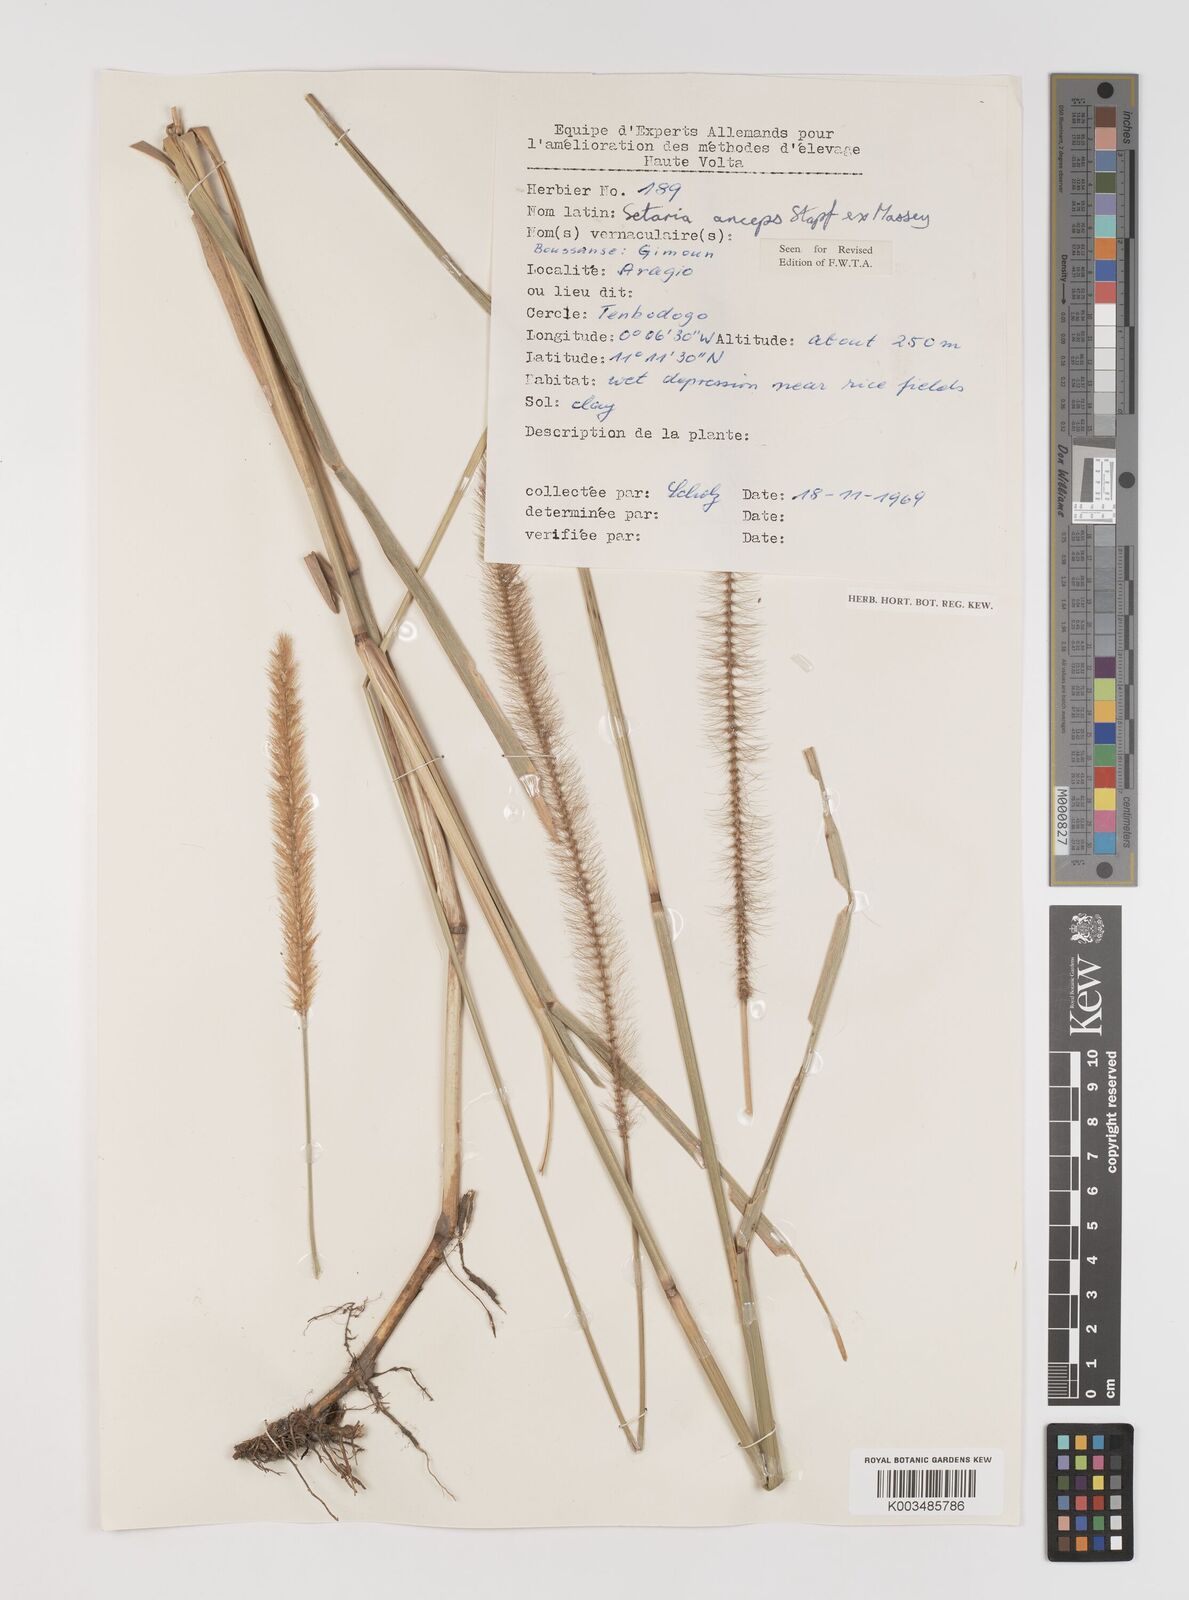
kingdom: Plantae
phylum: Tracheophyta
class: Liliopsida
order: Poales
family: Poaceae
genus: Setaria
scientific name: Setaria sphacelata
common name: African bristlegrass
